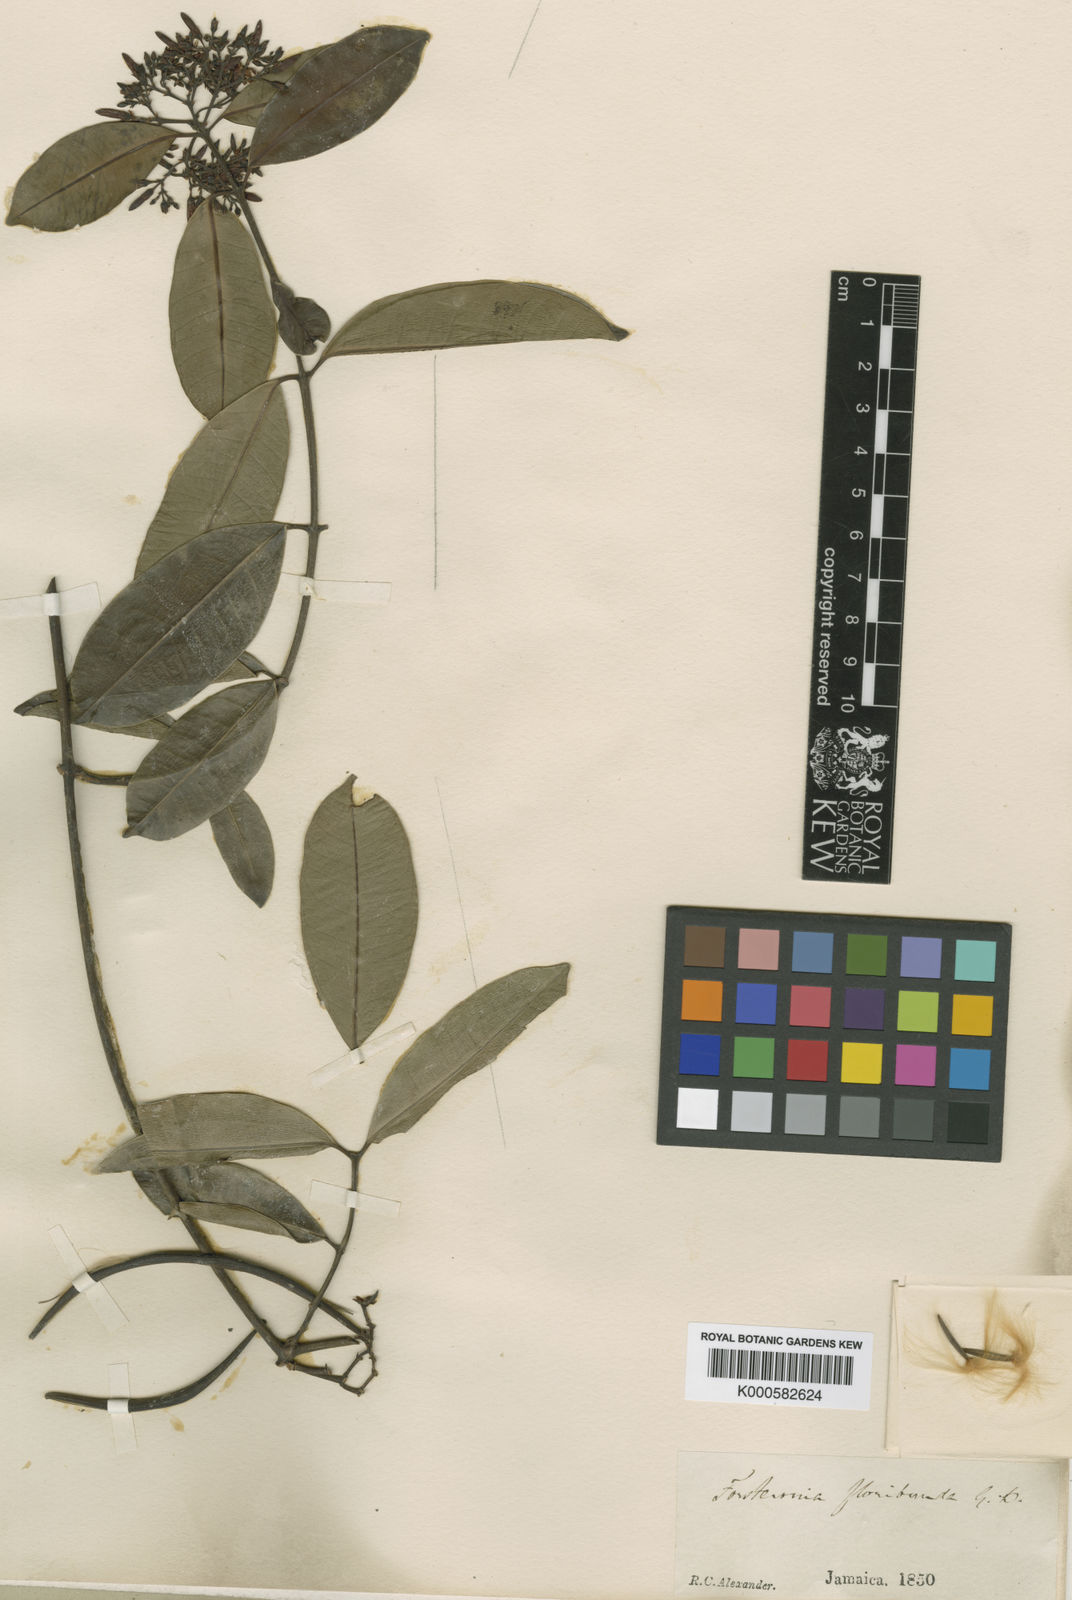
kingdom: Plantae
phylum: Tracheophyta
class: Magnoliopsida
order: Gentianales
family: Apocynaceae
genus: Pinochia
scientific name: Pinochia floribunda
